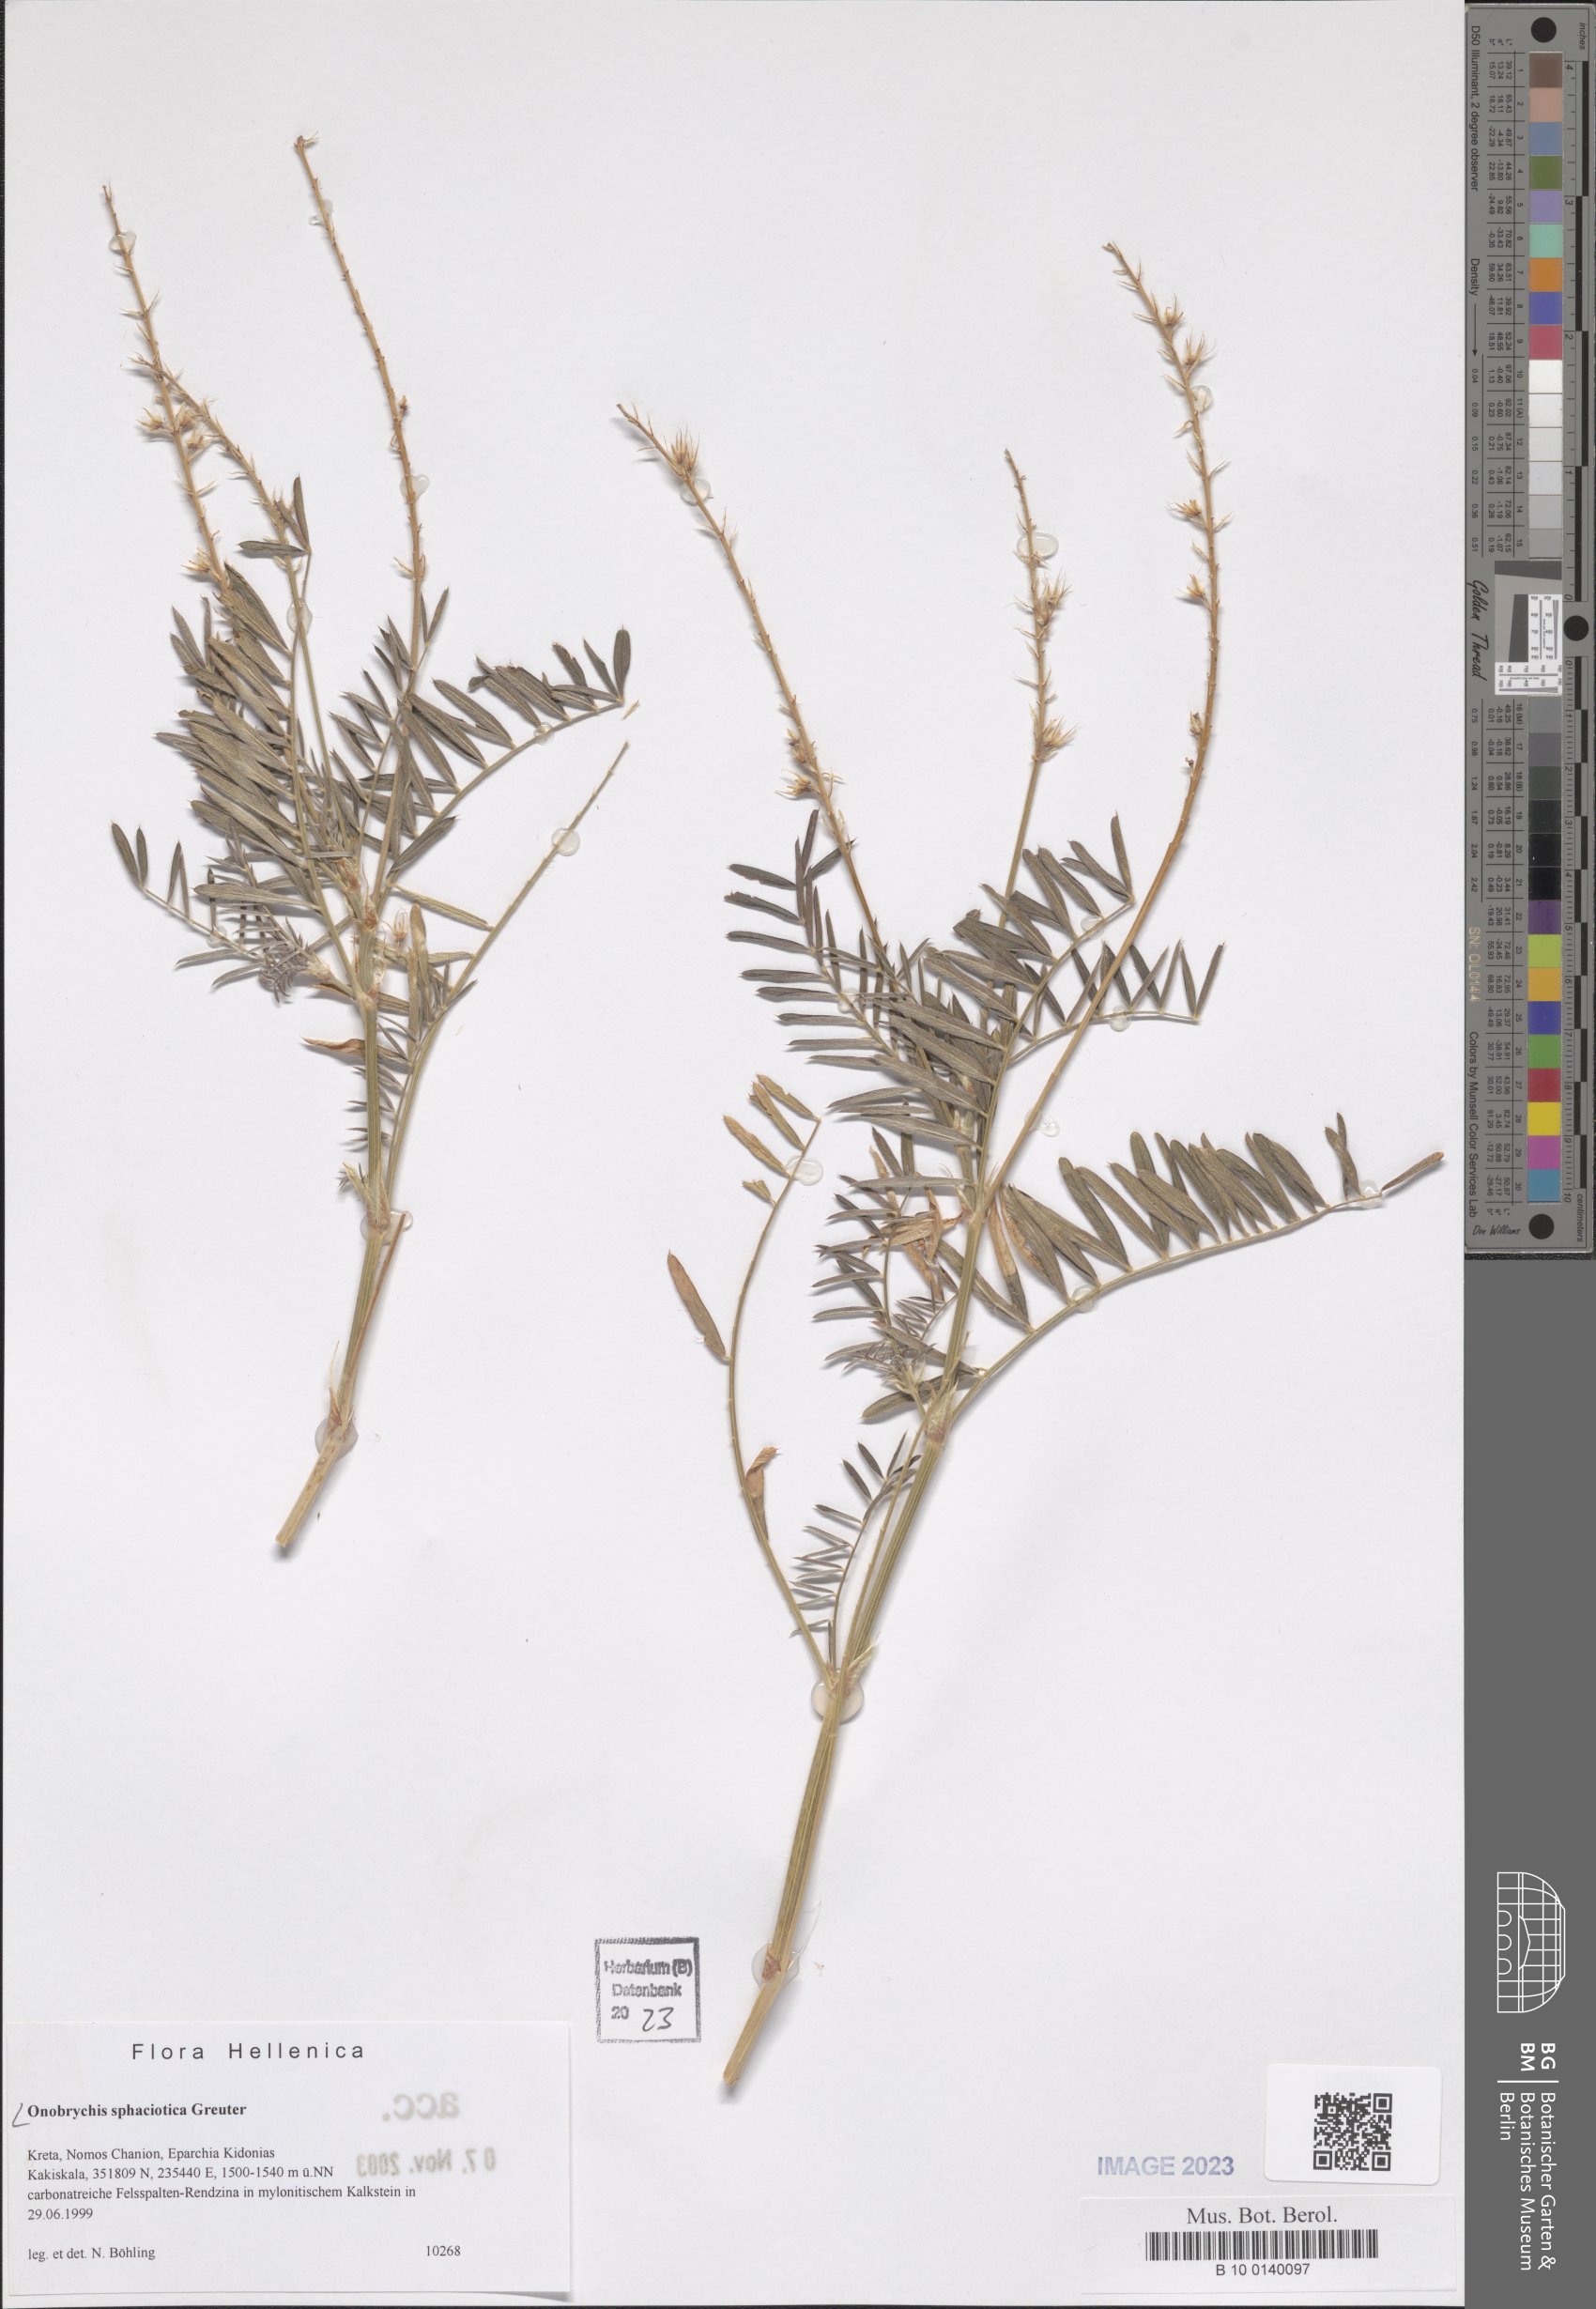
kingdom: Plantae
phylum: Tracheophyta
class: Magnoliopsida
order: Fabales
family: Fabaceae
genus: Onobrychis
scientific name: Onobrychis sphaciotica
